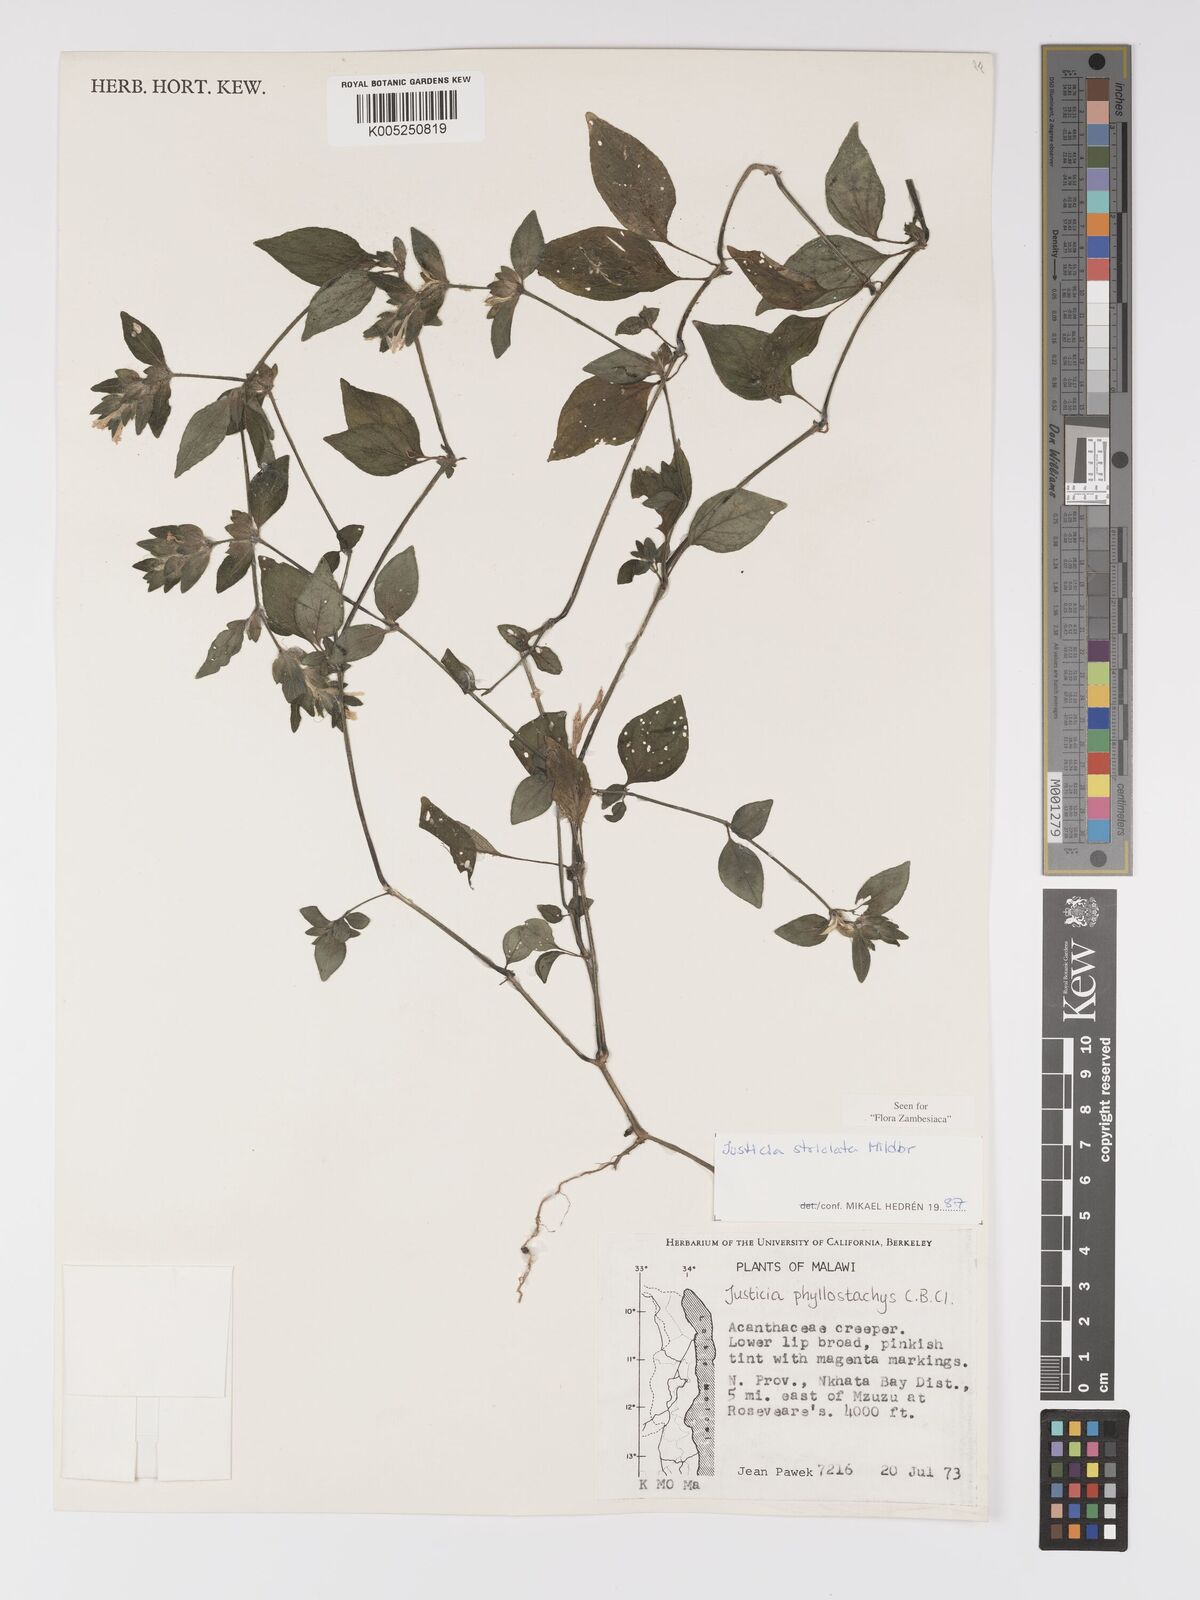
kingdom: Plantae
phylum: Tracheophyta
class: Magnoliopsida
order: Lamiales
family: Acanthaceae
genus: Justicia
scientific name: Justicia striolata
